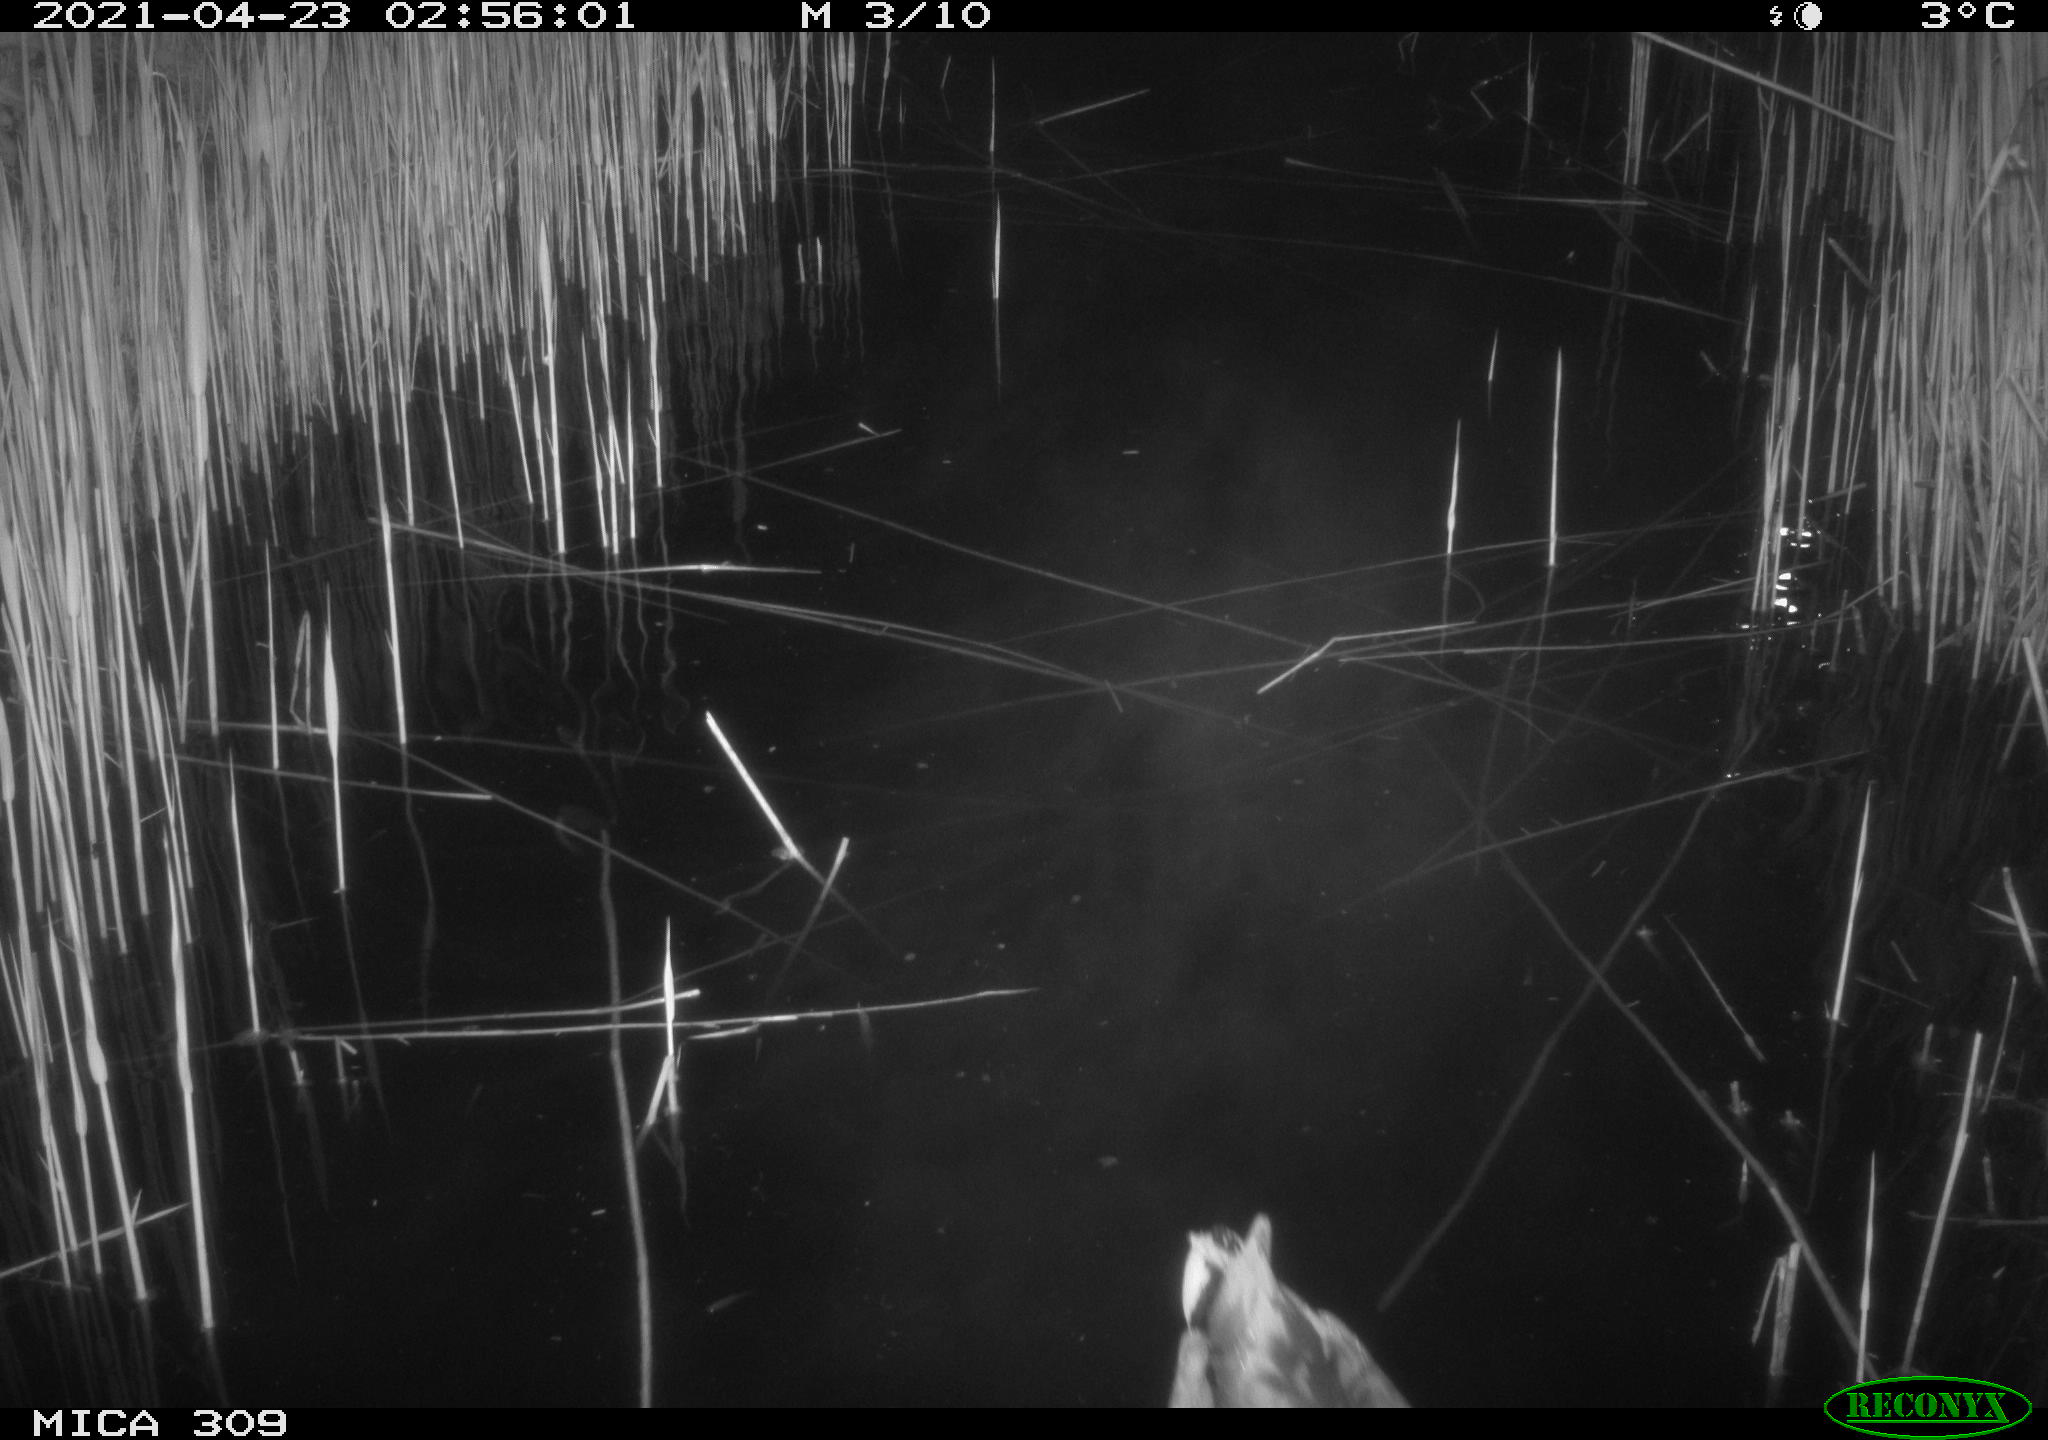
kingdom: Animalia
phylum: Chordata
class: Aves
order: Anseriformes
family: Anatidae
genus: Anas
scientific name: Anas platyrhynchos
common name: Mallard
